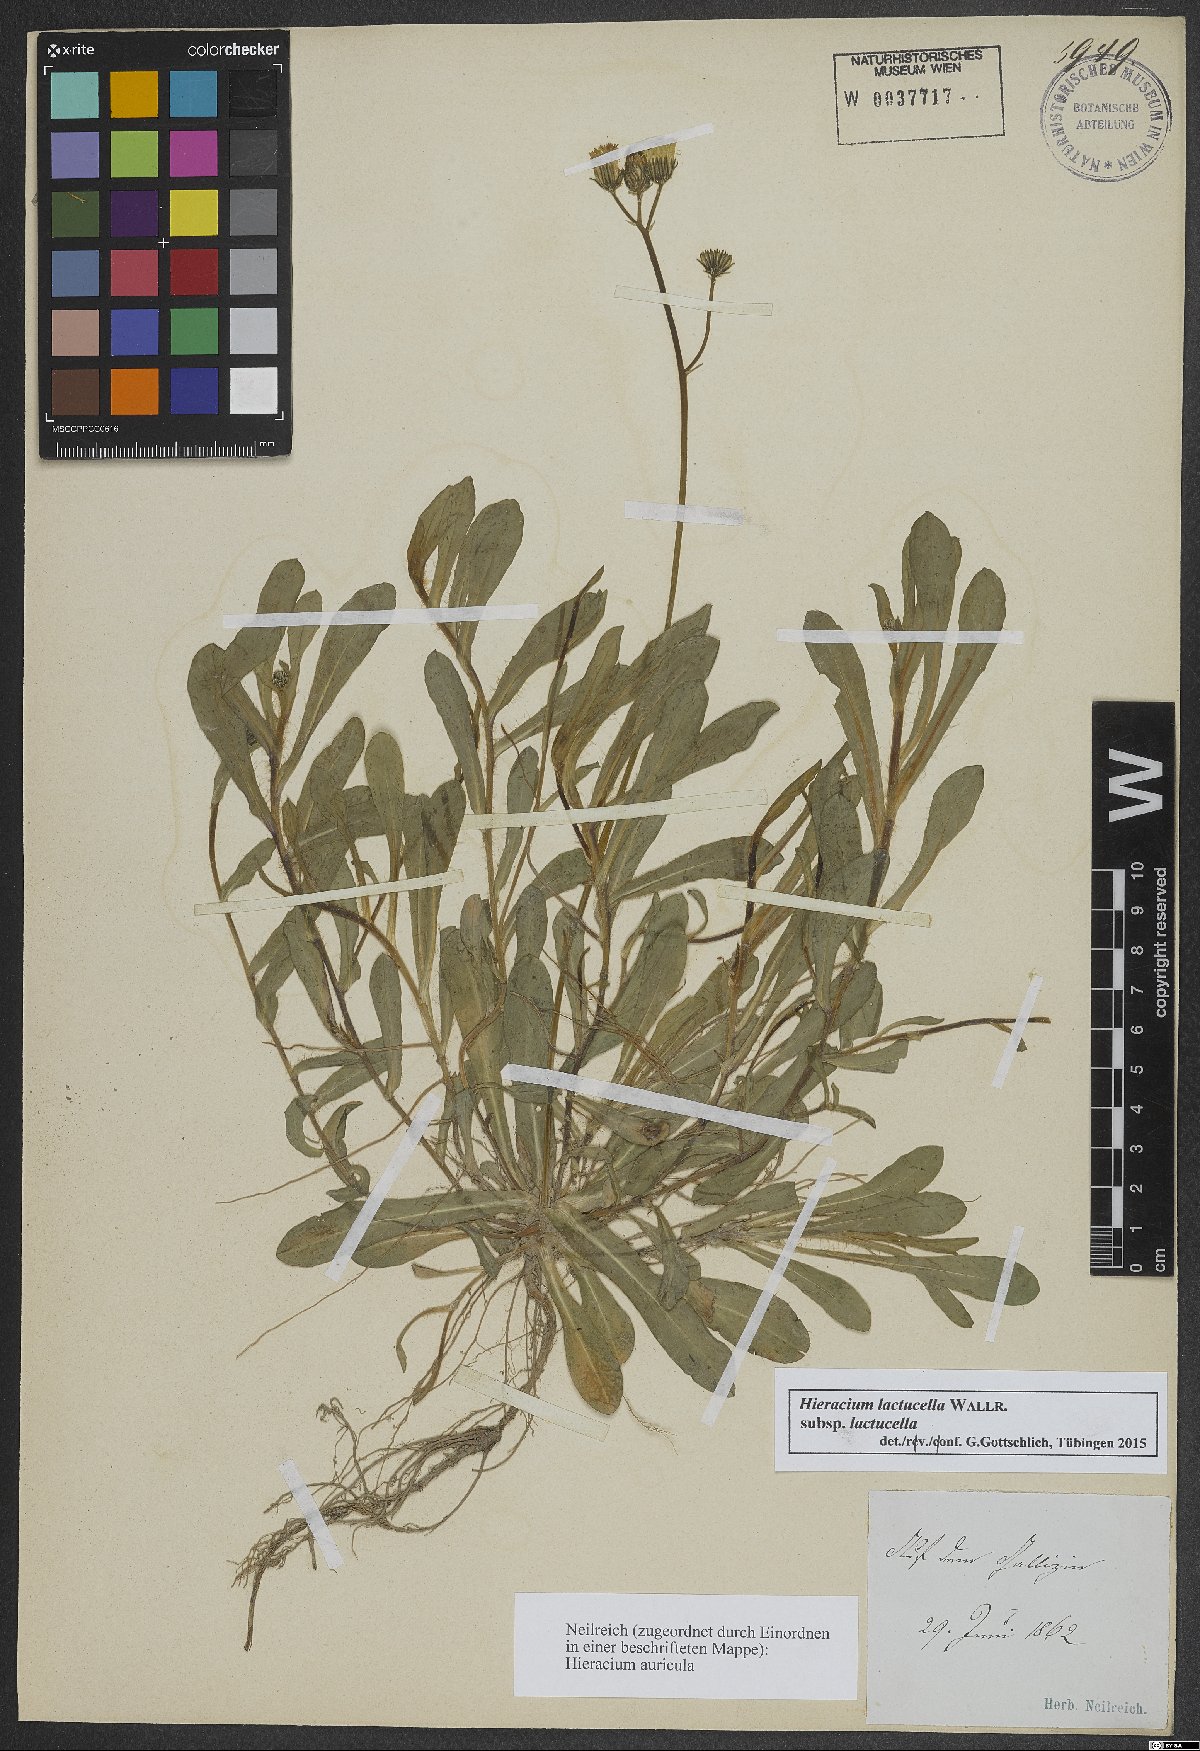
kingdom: Plantae
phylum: Tracheophyta
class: Magnoliopsida
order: Asterales
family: Asteraceae
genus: Pilosella
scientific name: Pilosella lactucella
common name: Glaucous fox-and-cubs
